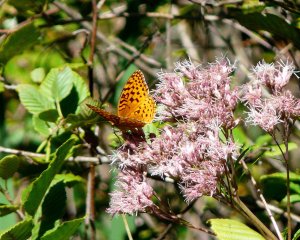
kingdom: Animalia
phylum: Arthropoda
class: Insecta
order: Lepidoptera
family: Nymphalidae
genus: Speyeria
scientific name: Speyeria aphrodite
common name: Aphrodite Fritillary
